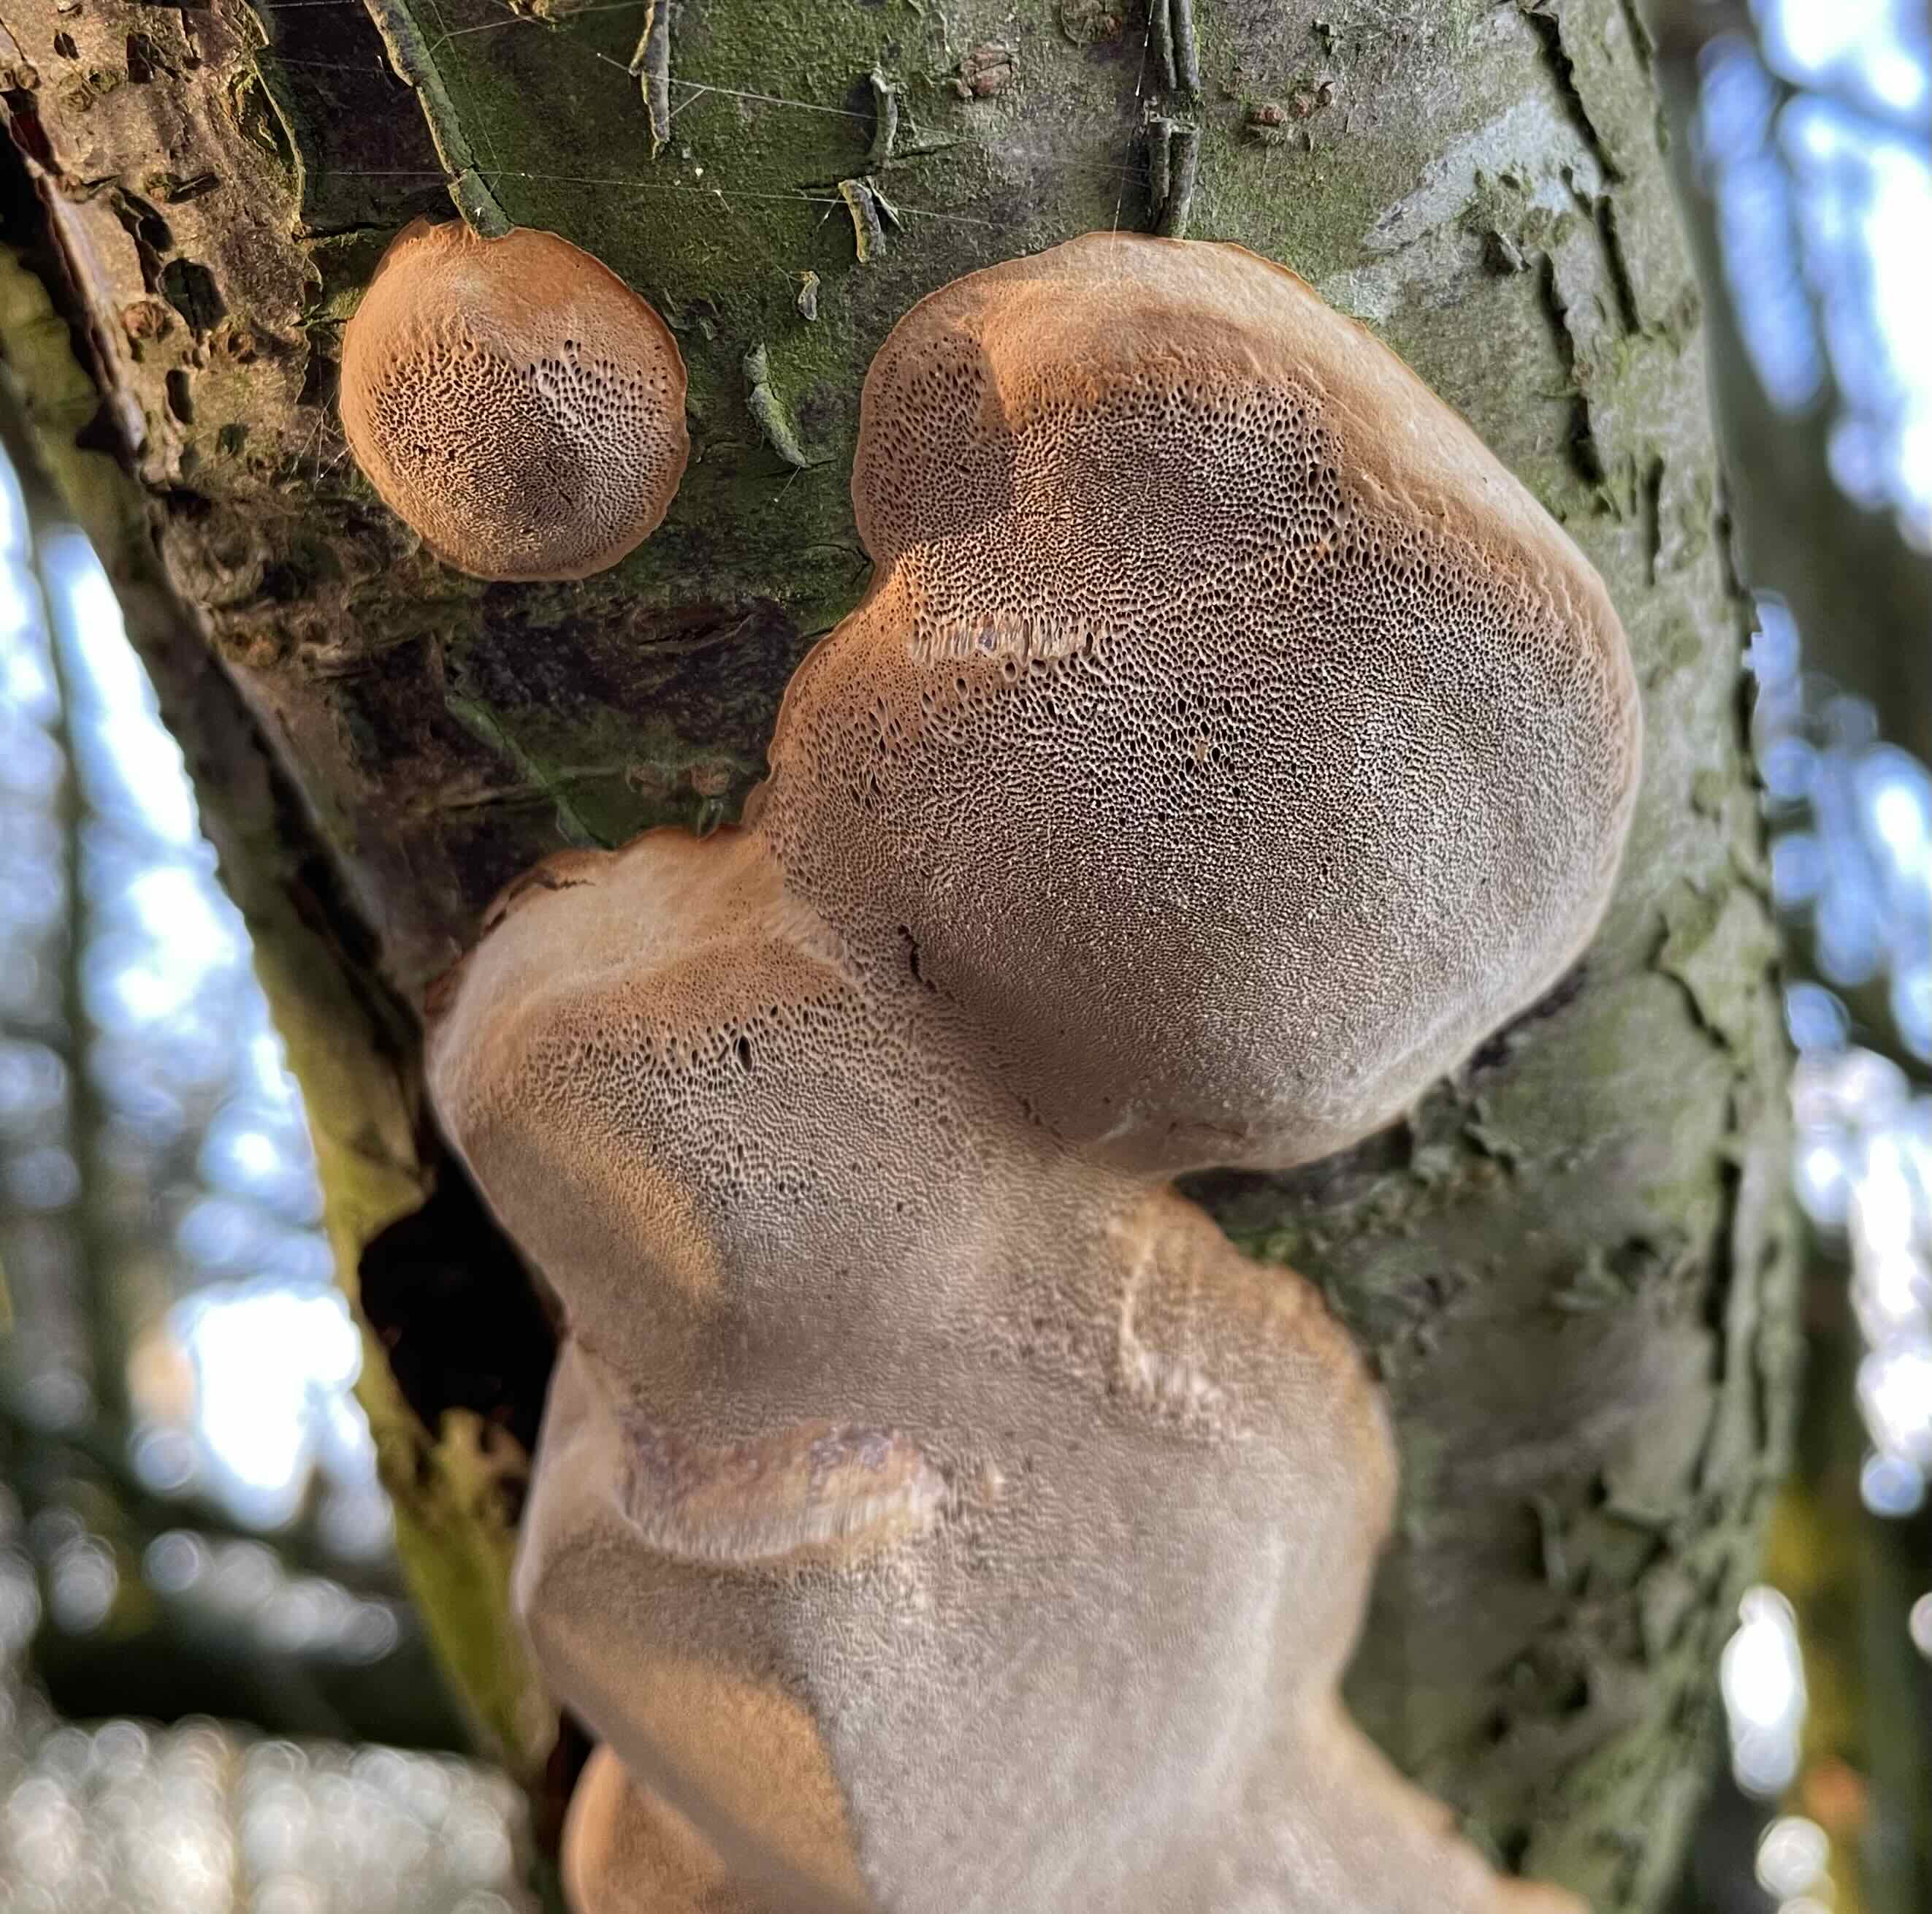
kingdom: Fungi
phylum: Basidiomycota
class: Agaricomycetes
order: Hymenochaetales
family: Hymenochaetaceae
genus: Phellinus
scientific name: Phellinus pomaceus
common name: blomme-ildporesvamp
